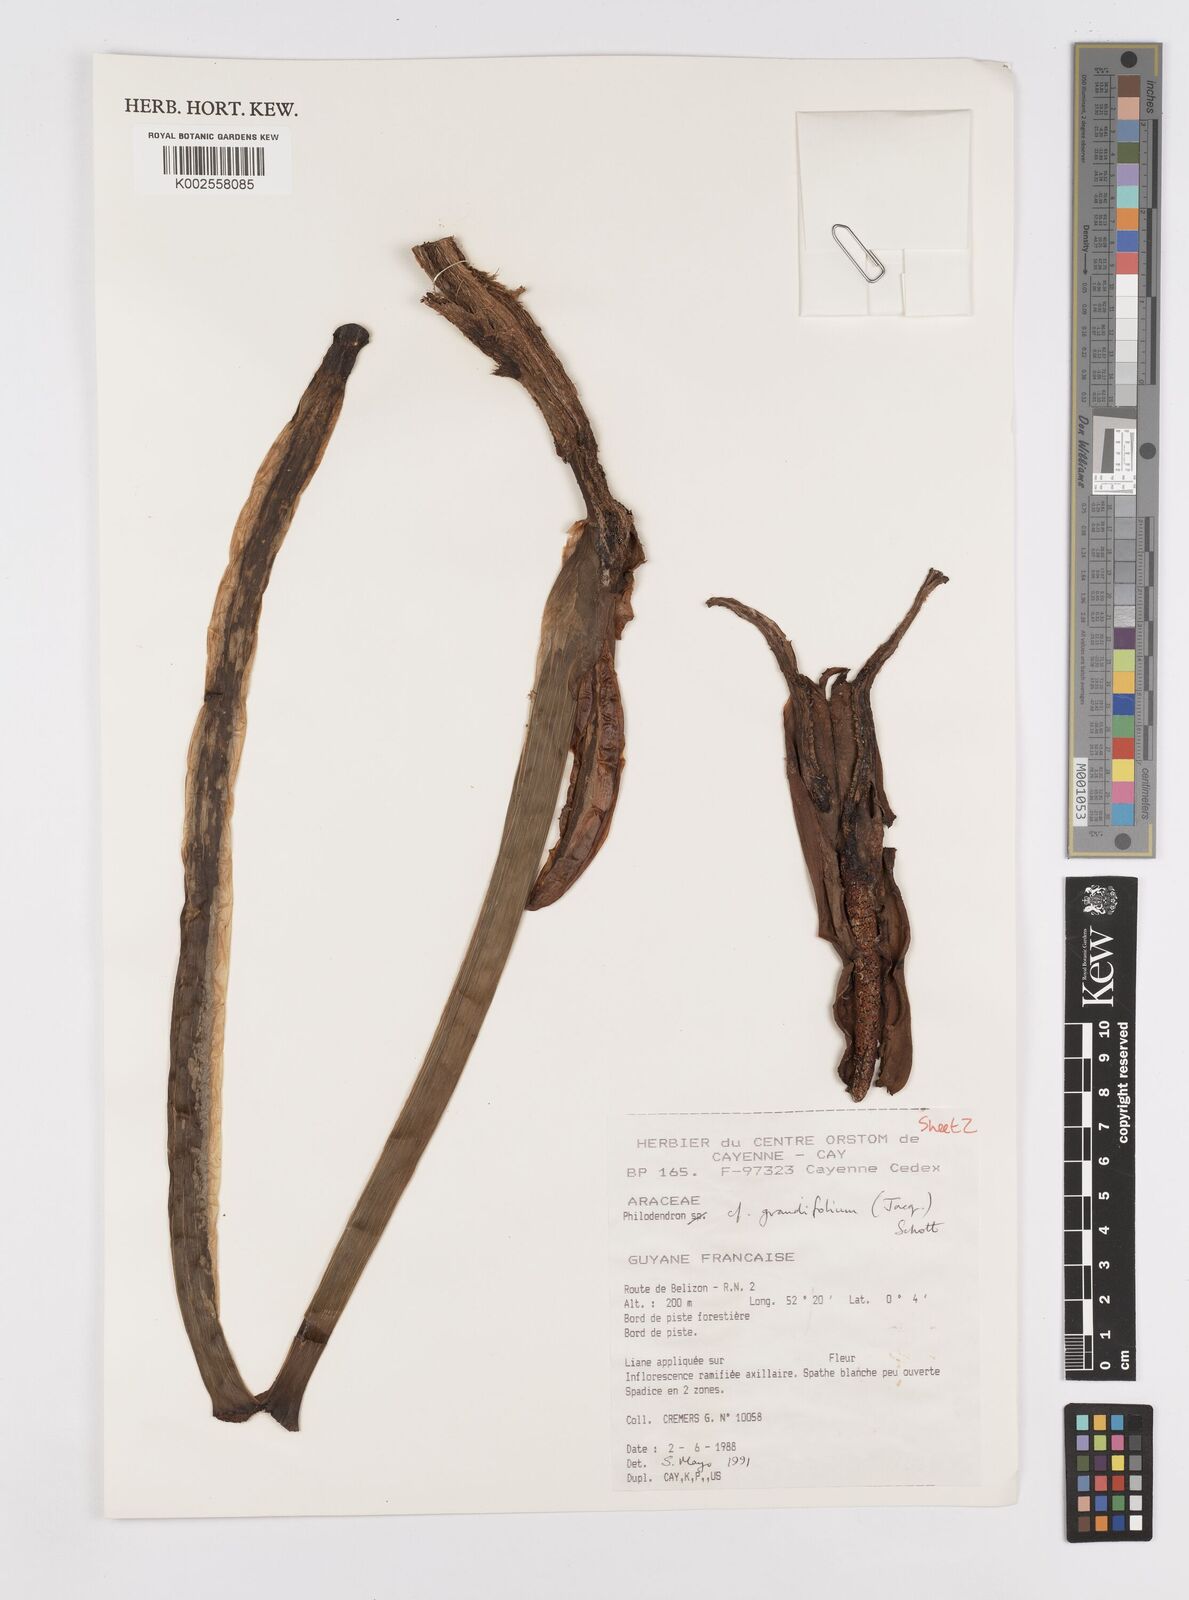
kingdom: Plantae
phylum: Tracheophyta
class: Liliopsida
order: Alismatales
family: Araceae
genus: Philodendron
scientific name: Philodendron grandifolium
